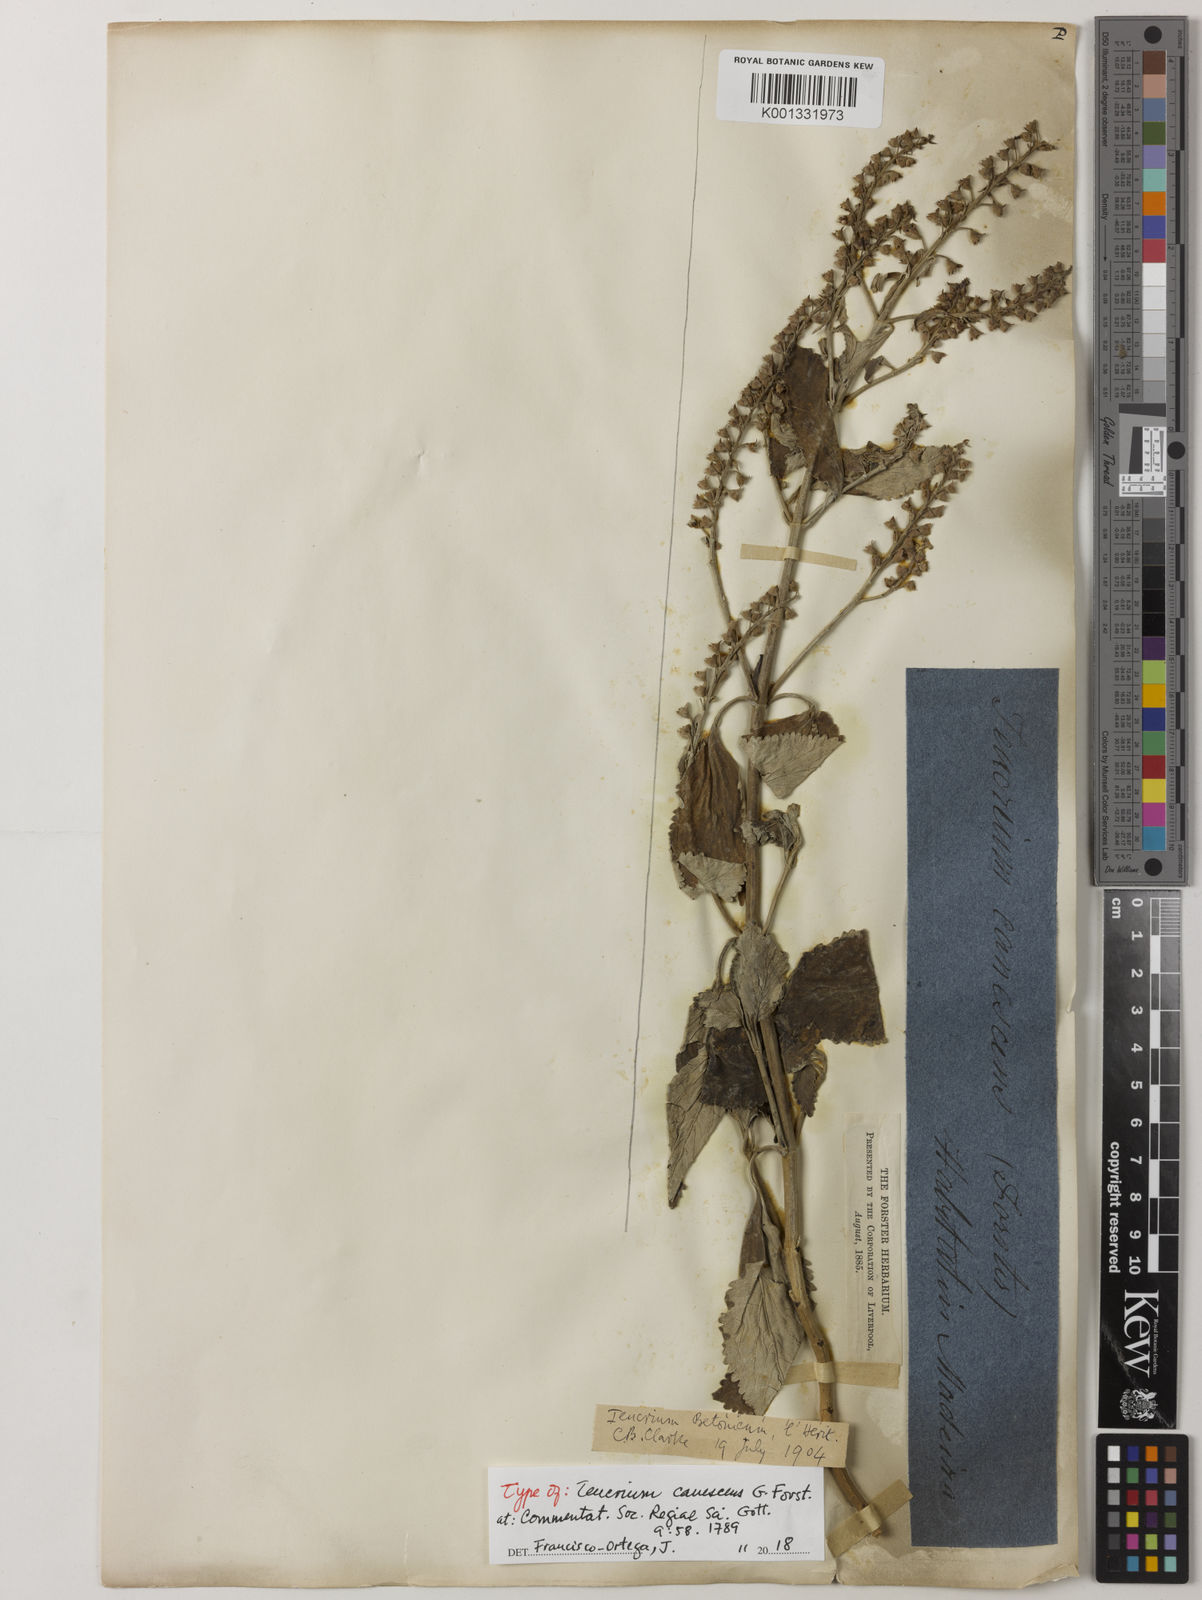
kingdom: Plantae
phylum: Tracheophyta
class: Magnoliopsida
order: Lamiales
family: Lamiaceae
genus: Teucrium
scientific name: Teucrium
